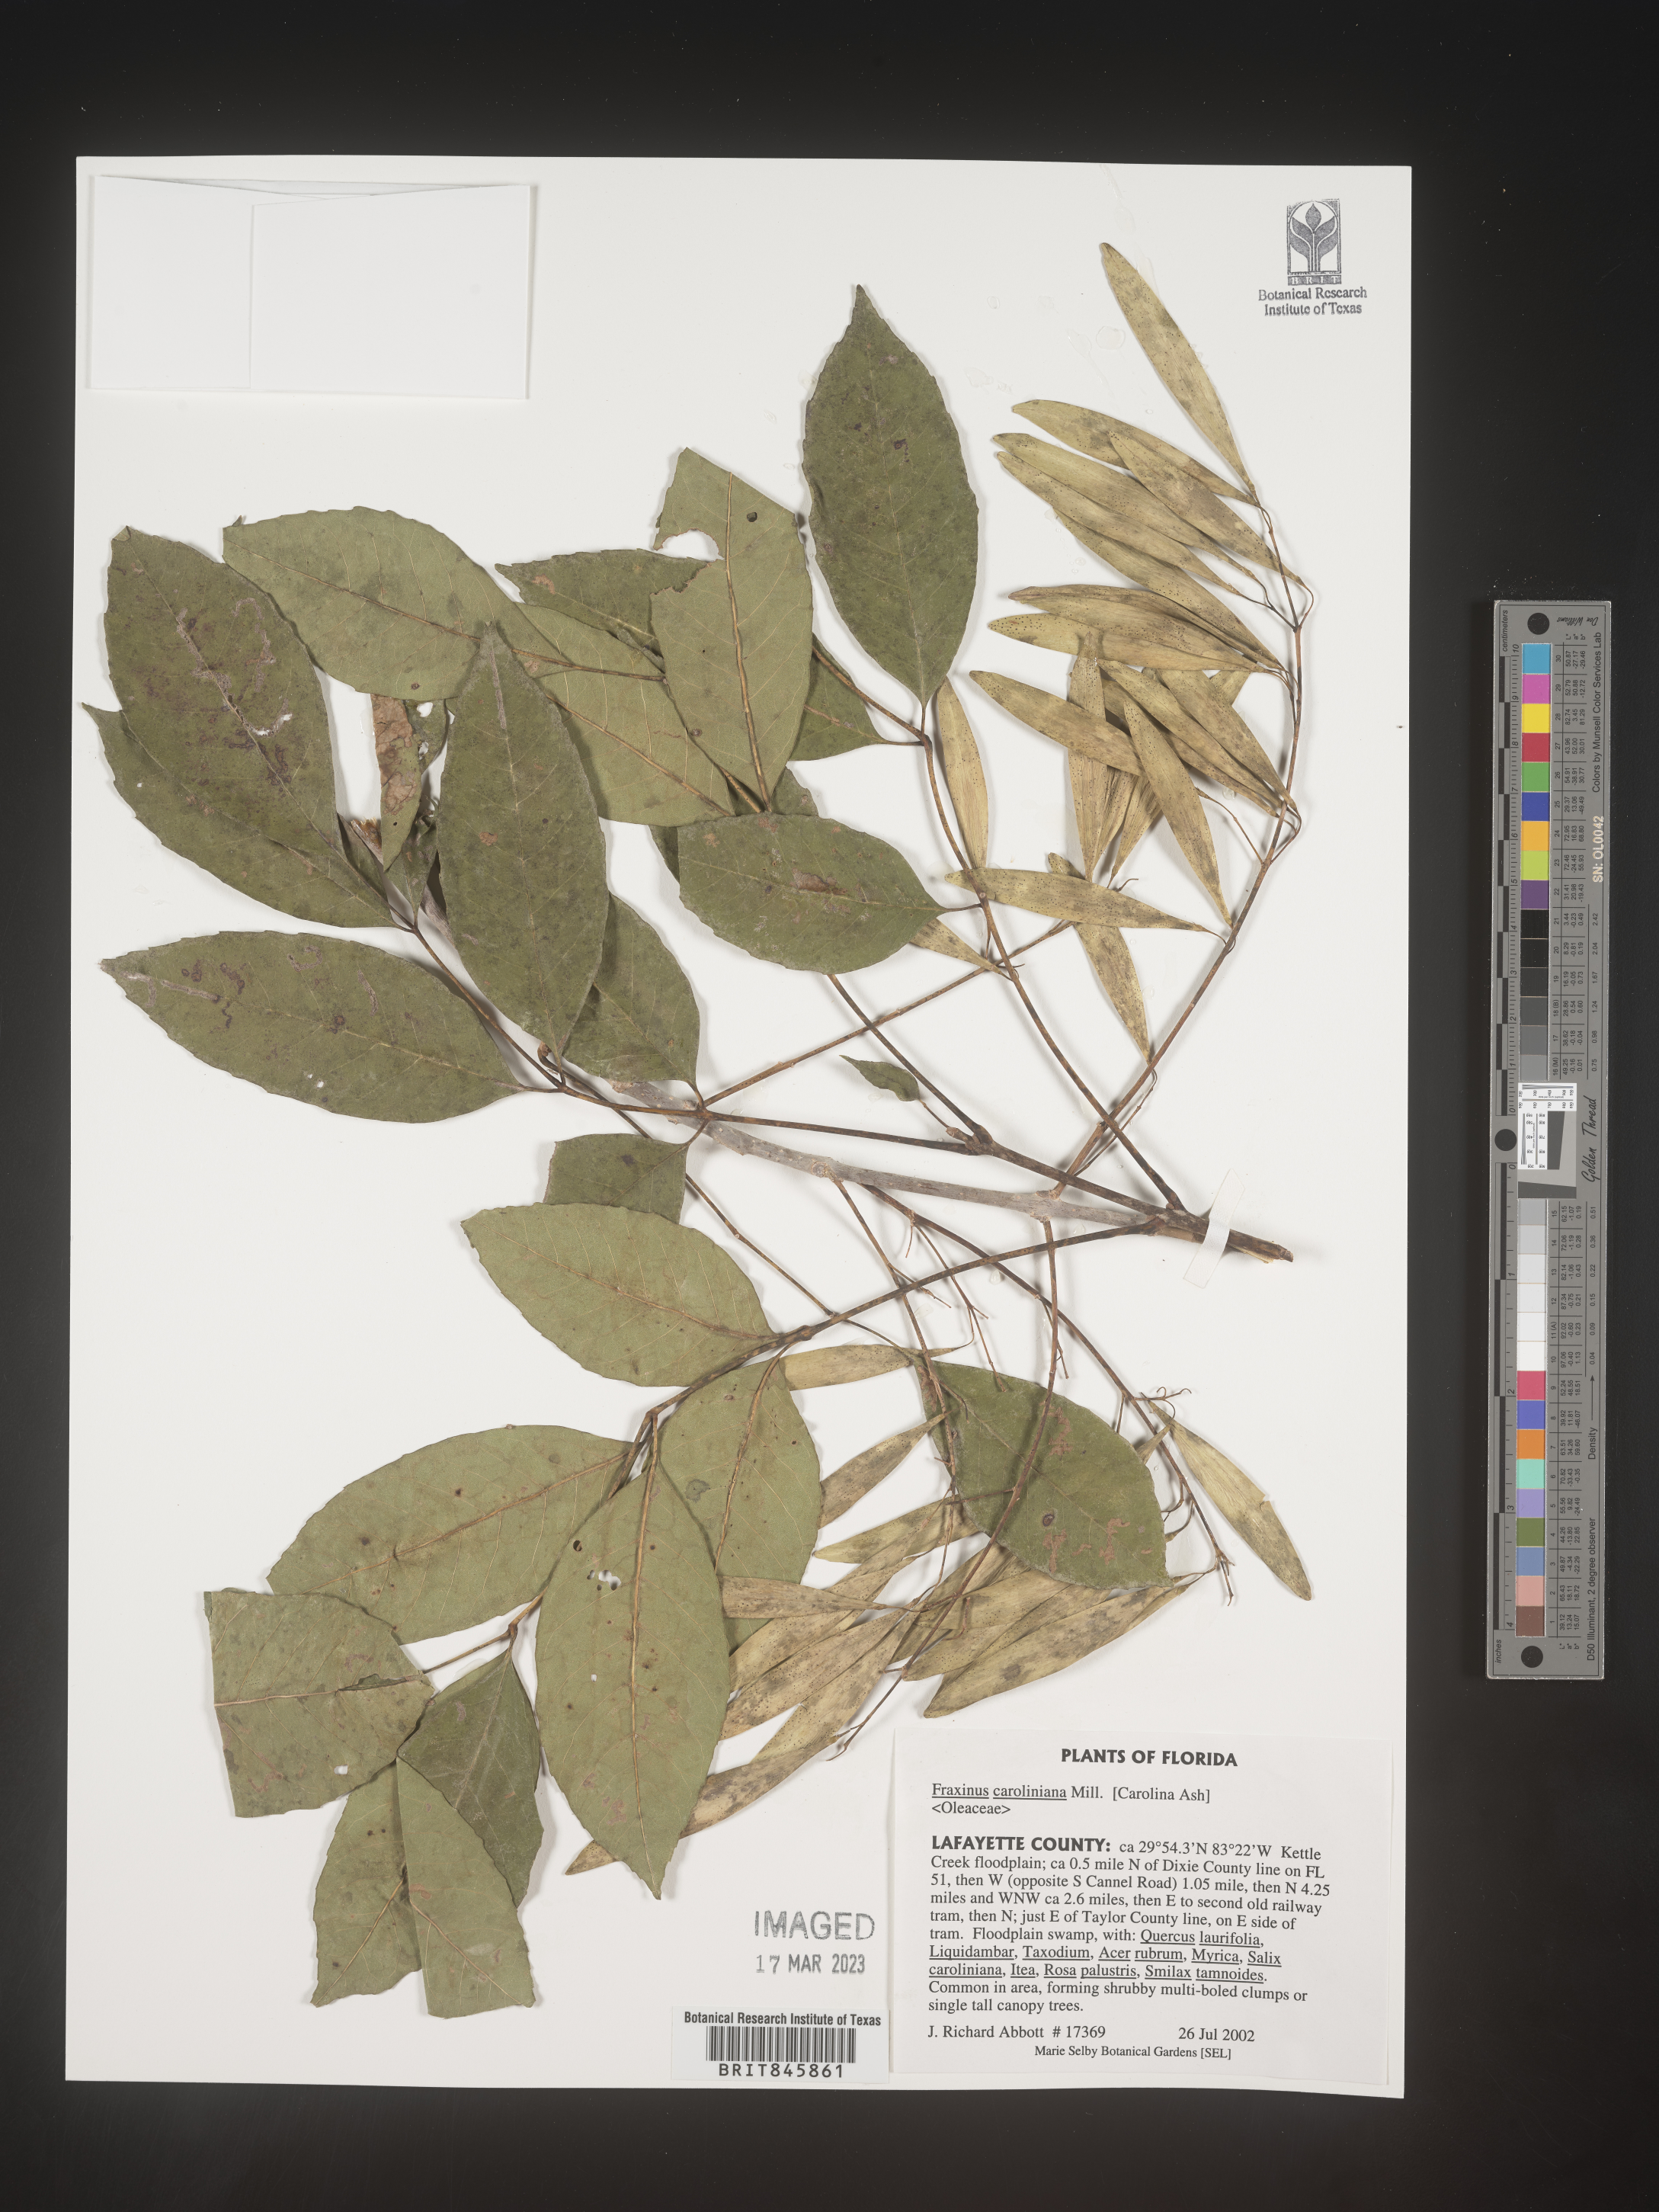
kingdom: Plantae
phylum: Tracheophyta
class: Magnoliopsida
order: Lamiales
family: Oleaceae
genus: Fraxinus
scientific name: Fraxinus caroliniana
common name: Carolina ash
